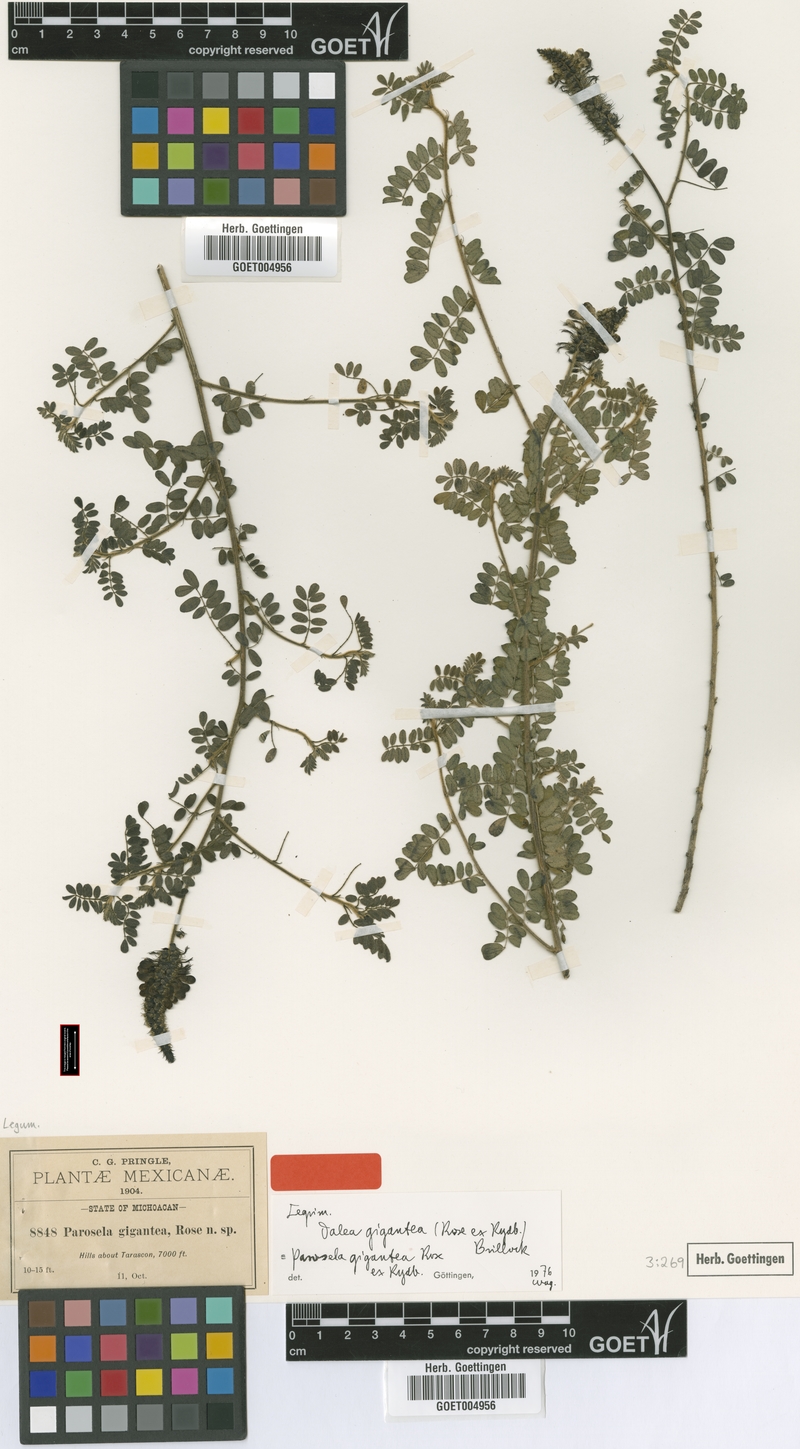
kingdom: Plantae
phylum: Tracheophyta
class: Magnoliopsida
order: Fabales
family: Fabaceae
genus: Dalea
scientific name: Dalea lutea
